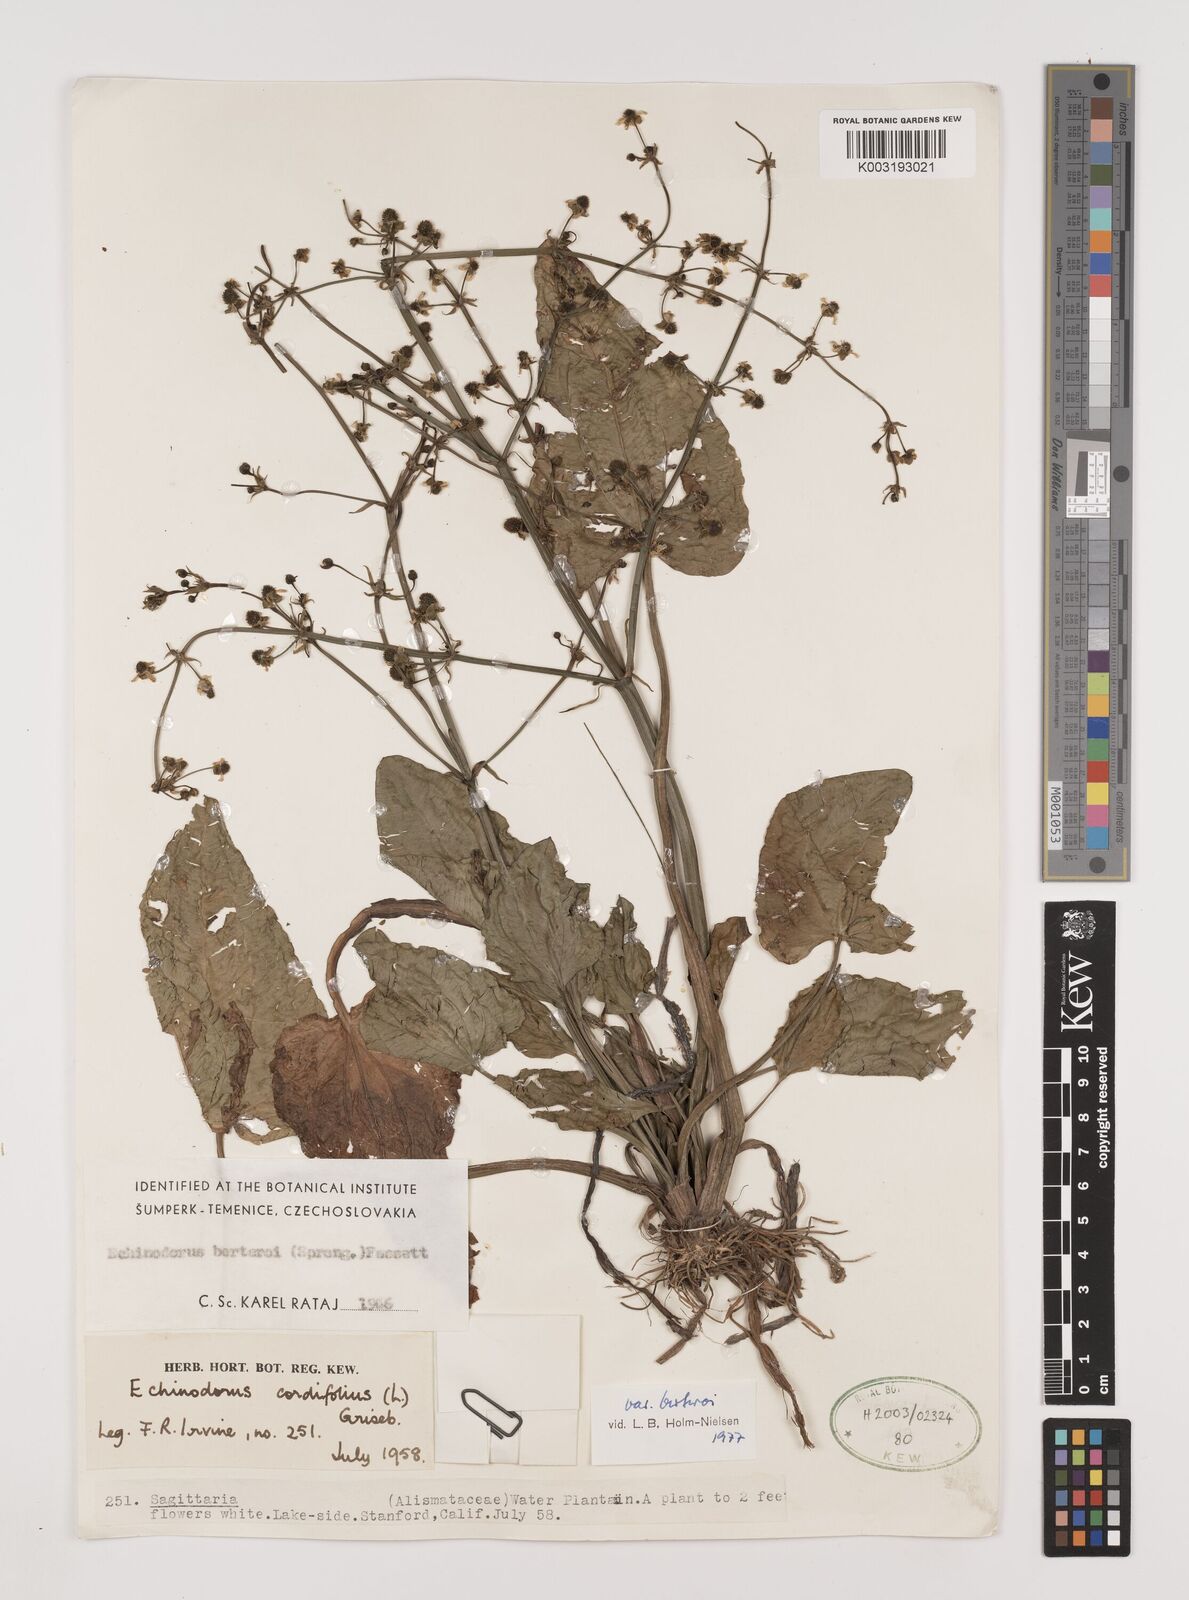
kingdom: Plantae
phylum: Tracheophyta
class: Liliopsida
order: Alismatales
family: Alismataceae
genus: Echinodorus
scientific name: Echinodorus berteroi
